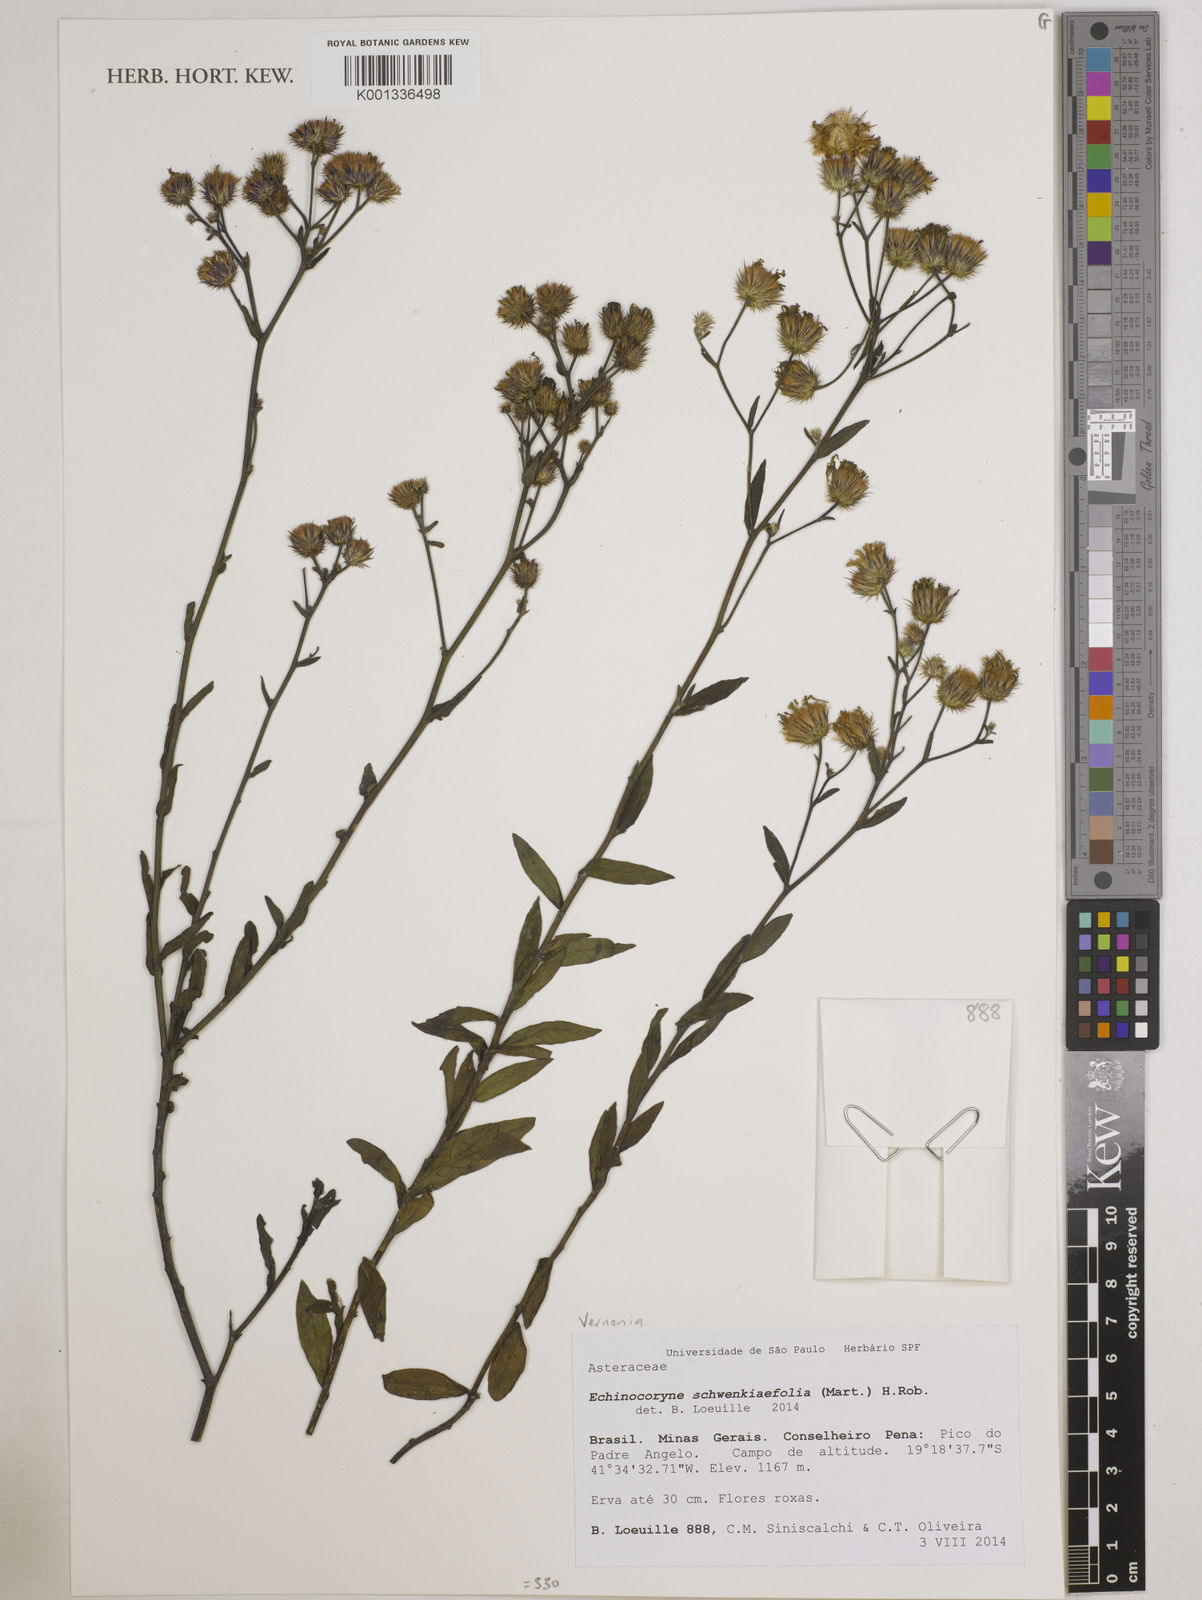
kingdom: Plantae
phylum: Tracheophyta
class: Magnoliopsida
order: Asterales
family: Asteraceae
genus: Echinocoryne
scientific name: Echinocoryne schwenkiifolia
